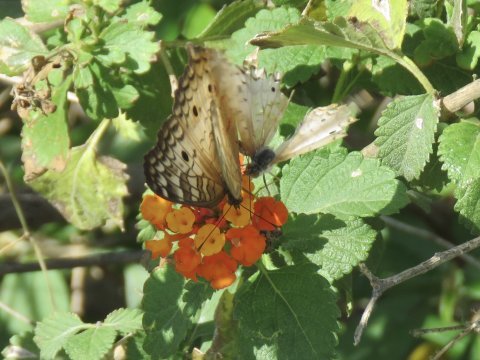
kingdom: Animalia
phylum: Arthropoda
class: Insecta
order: Lepidoptera
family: Nymphalidae
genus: Anartia
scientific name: Anartia jatrophae
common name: White Peacock
